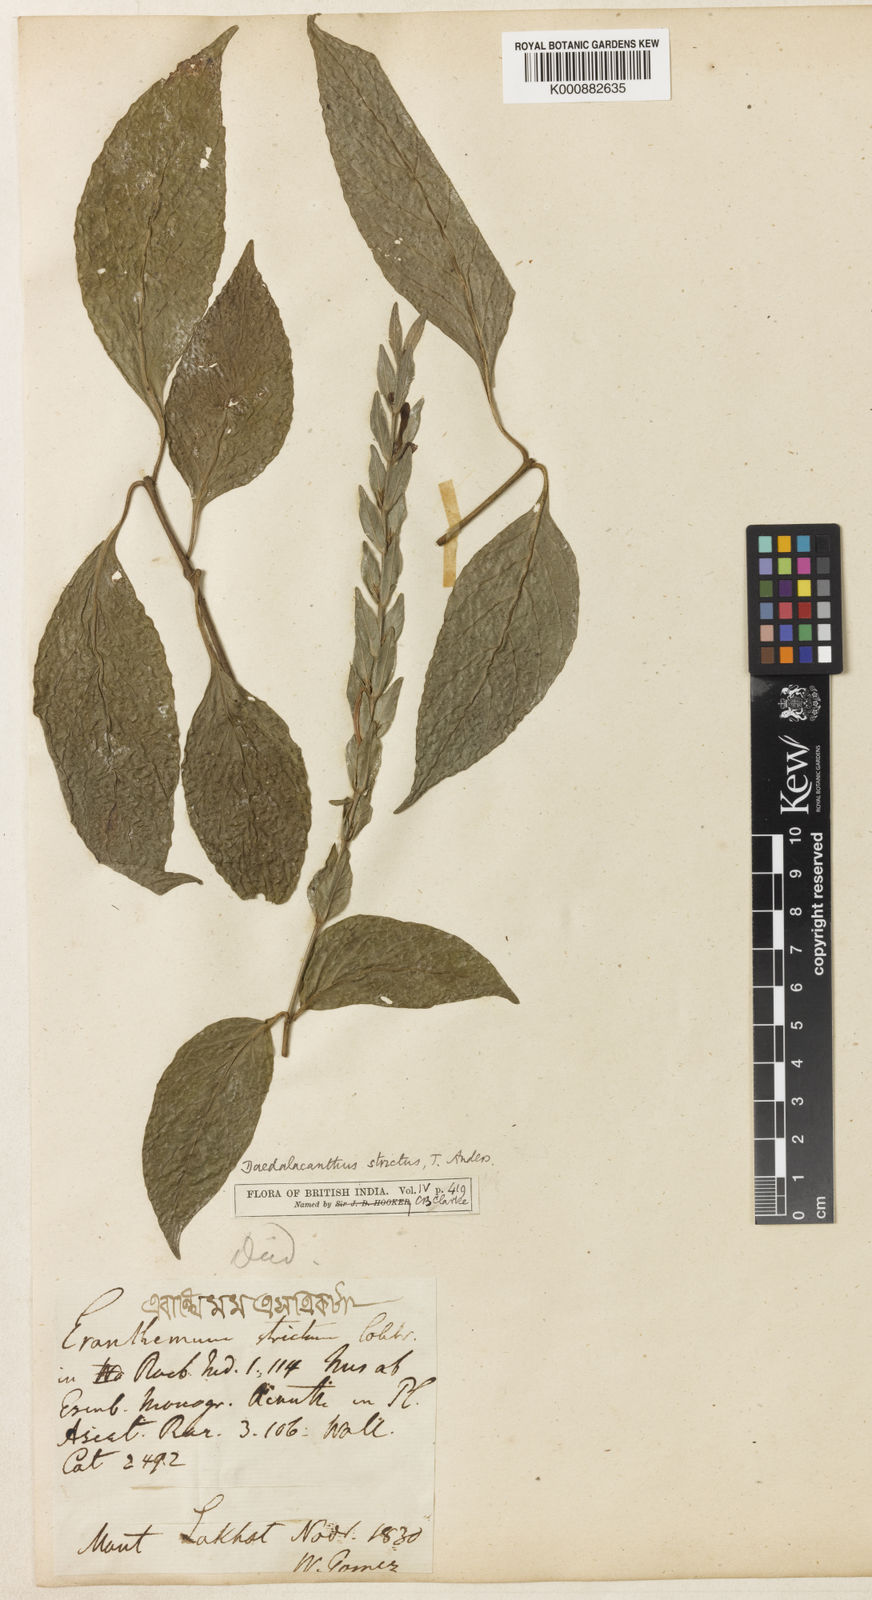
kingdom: Plantae
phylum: Tracheophyta
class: Magnoliopsida
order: Lamiales
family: Acanthaceae
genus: Eranthemum
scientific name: Eranthemum
